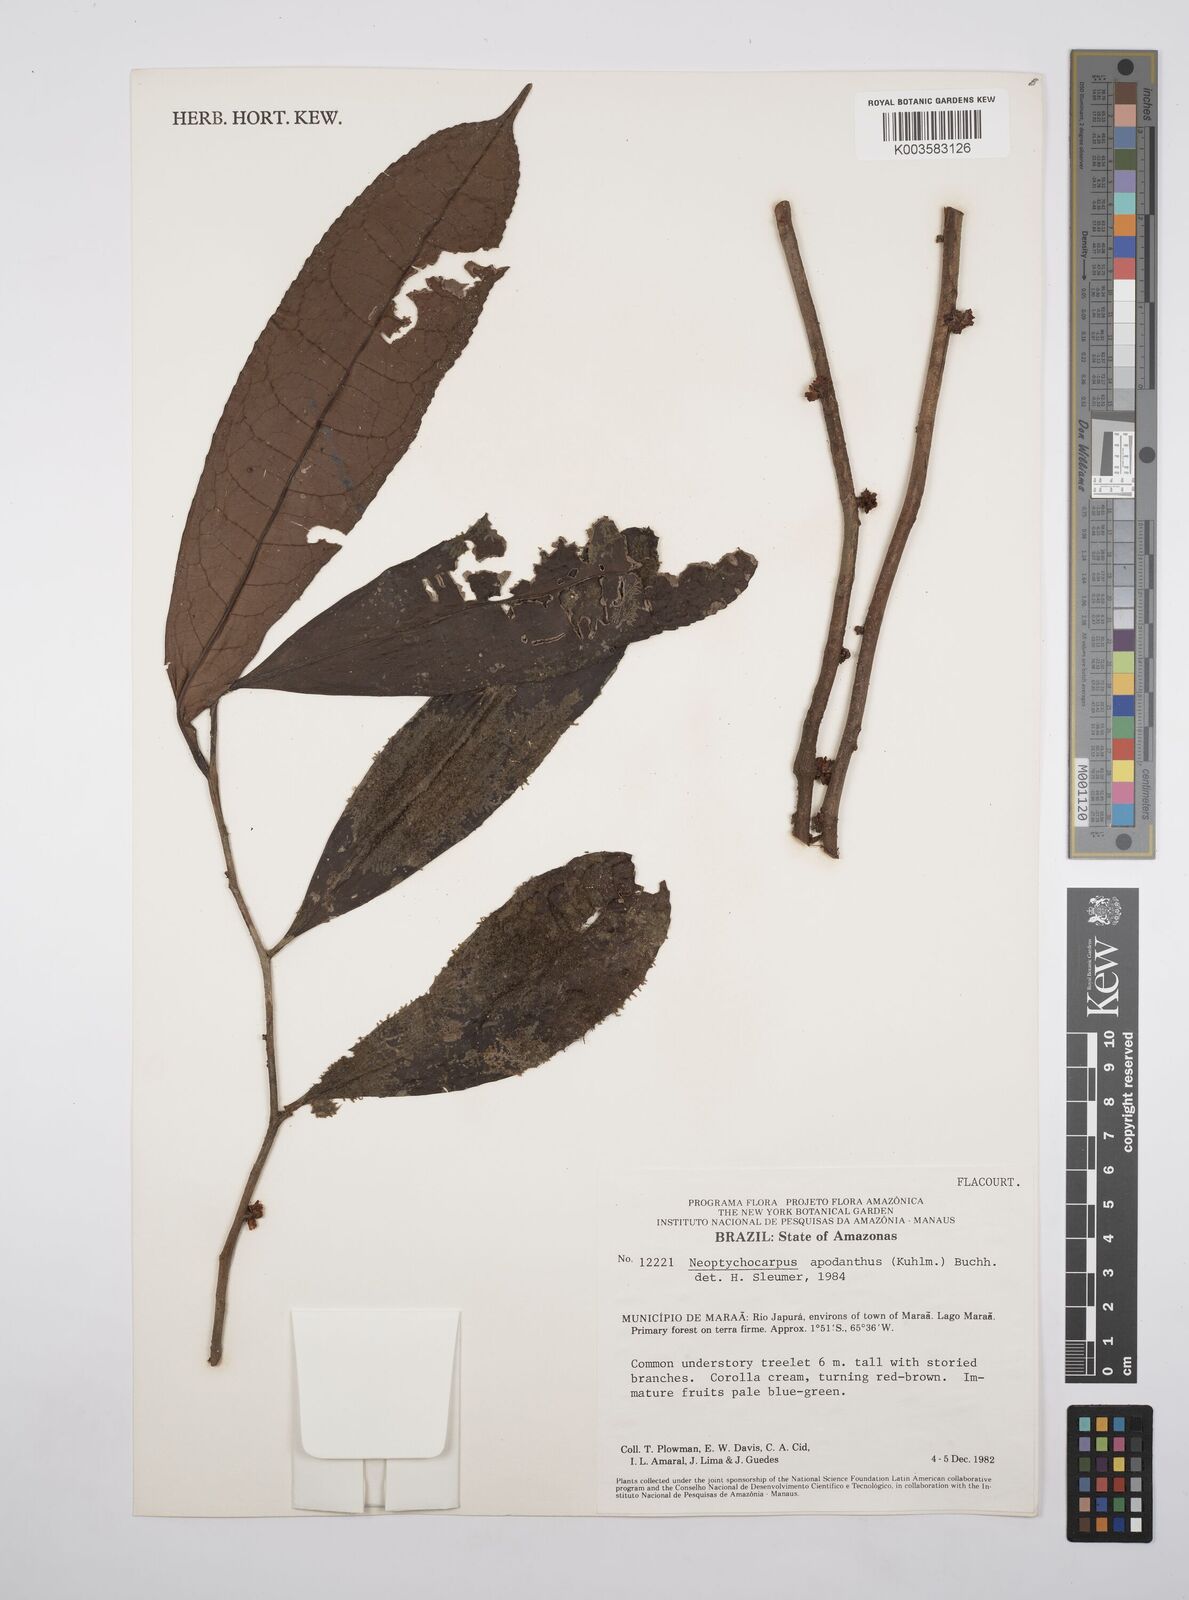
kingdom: Plantae
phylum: Tracheophyta
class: Magnoliopsida
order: Malpighiales
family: Salicaceae
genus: Casearia
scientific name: Casearia apodantha
